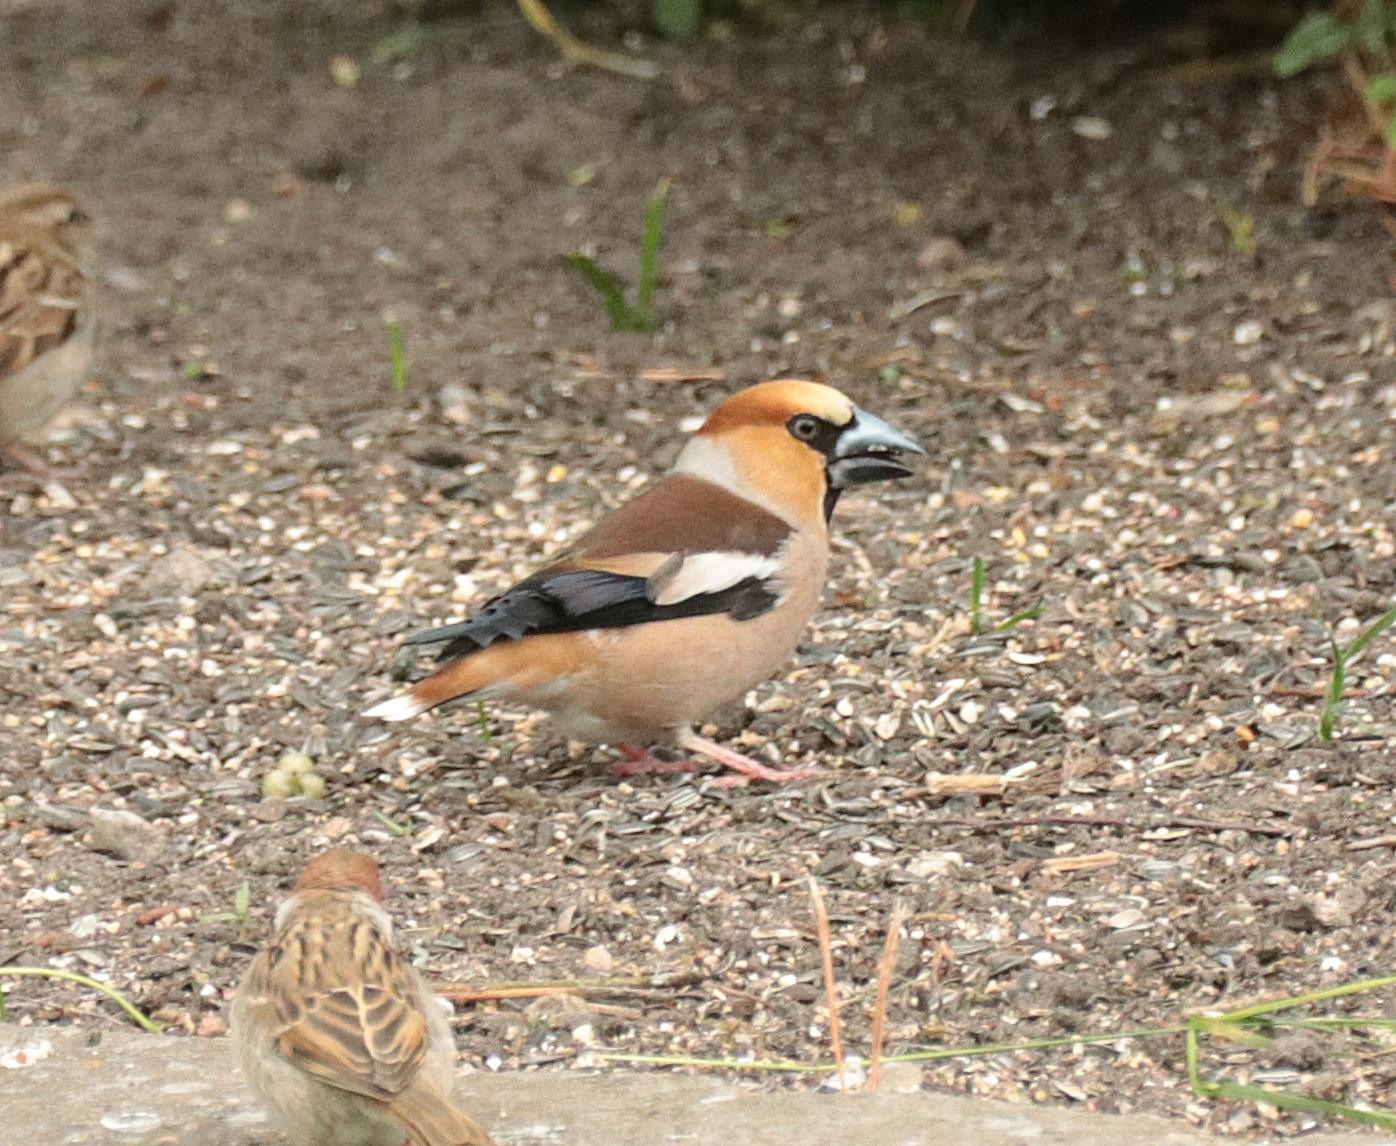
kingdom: Animalia
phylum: Chordata
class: Aves
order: Passeriformes
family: Fringillidae
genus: Coccothraustes
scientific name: Coccothraustes coccothraustes
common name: Kernebider
